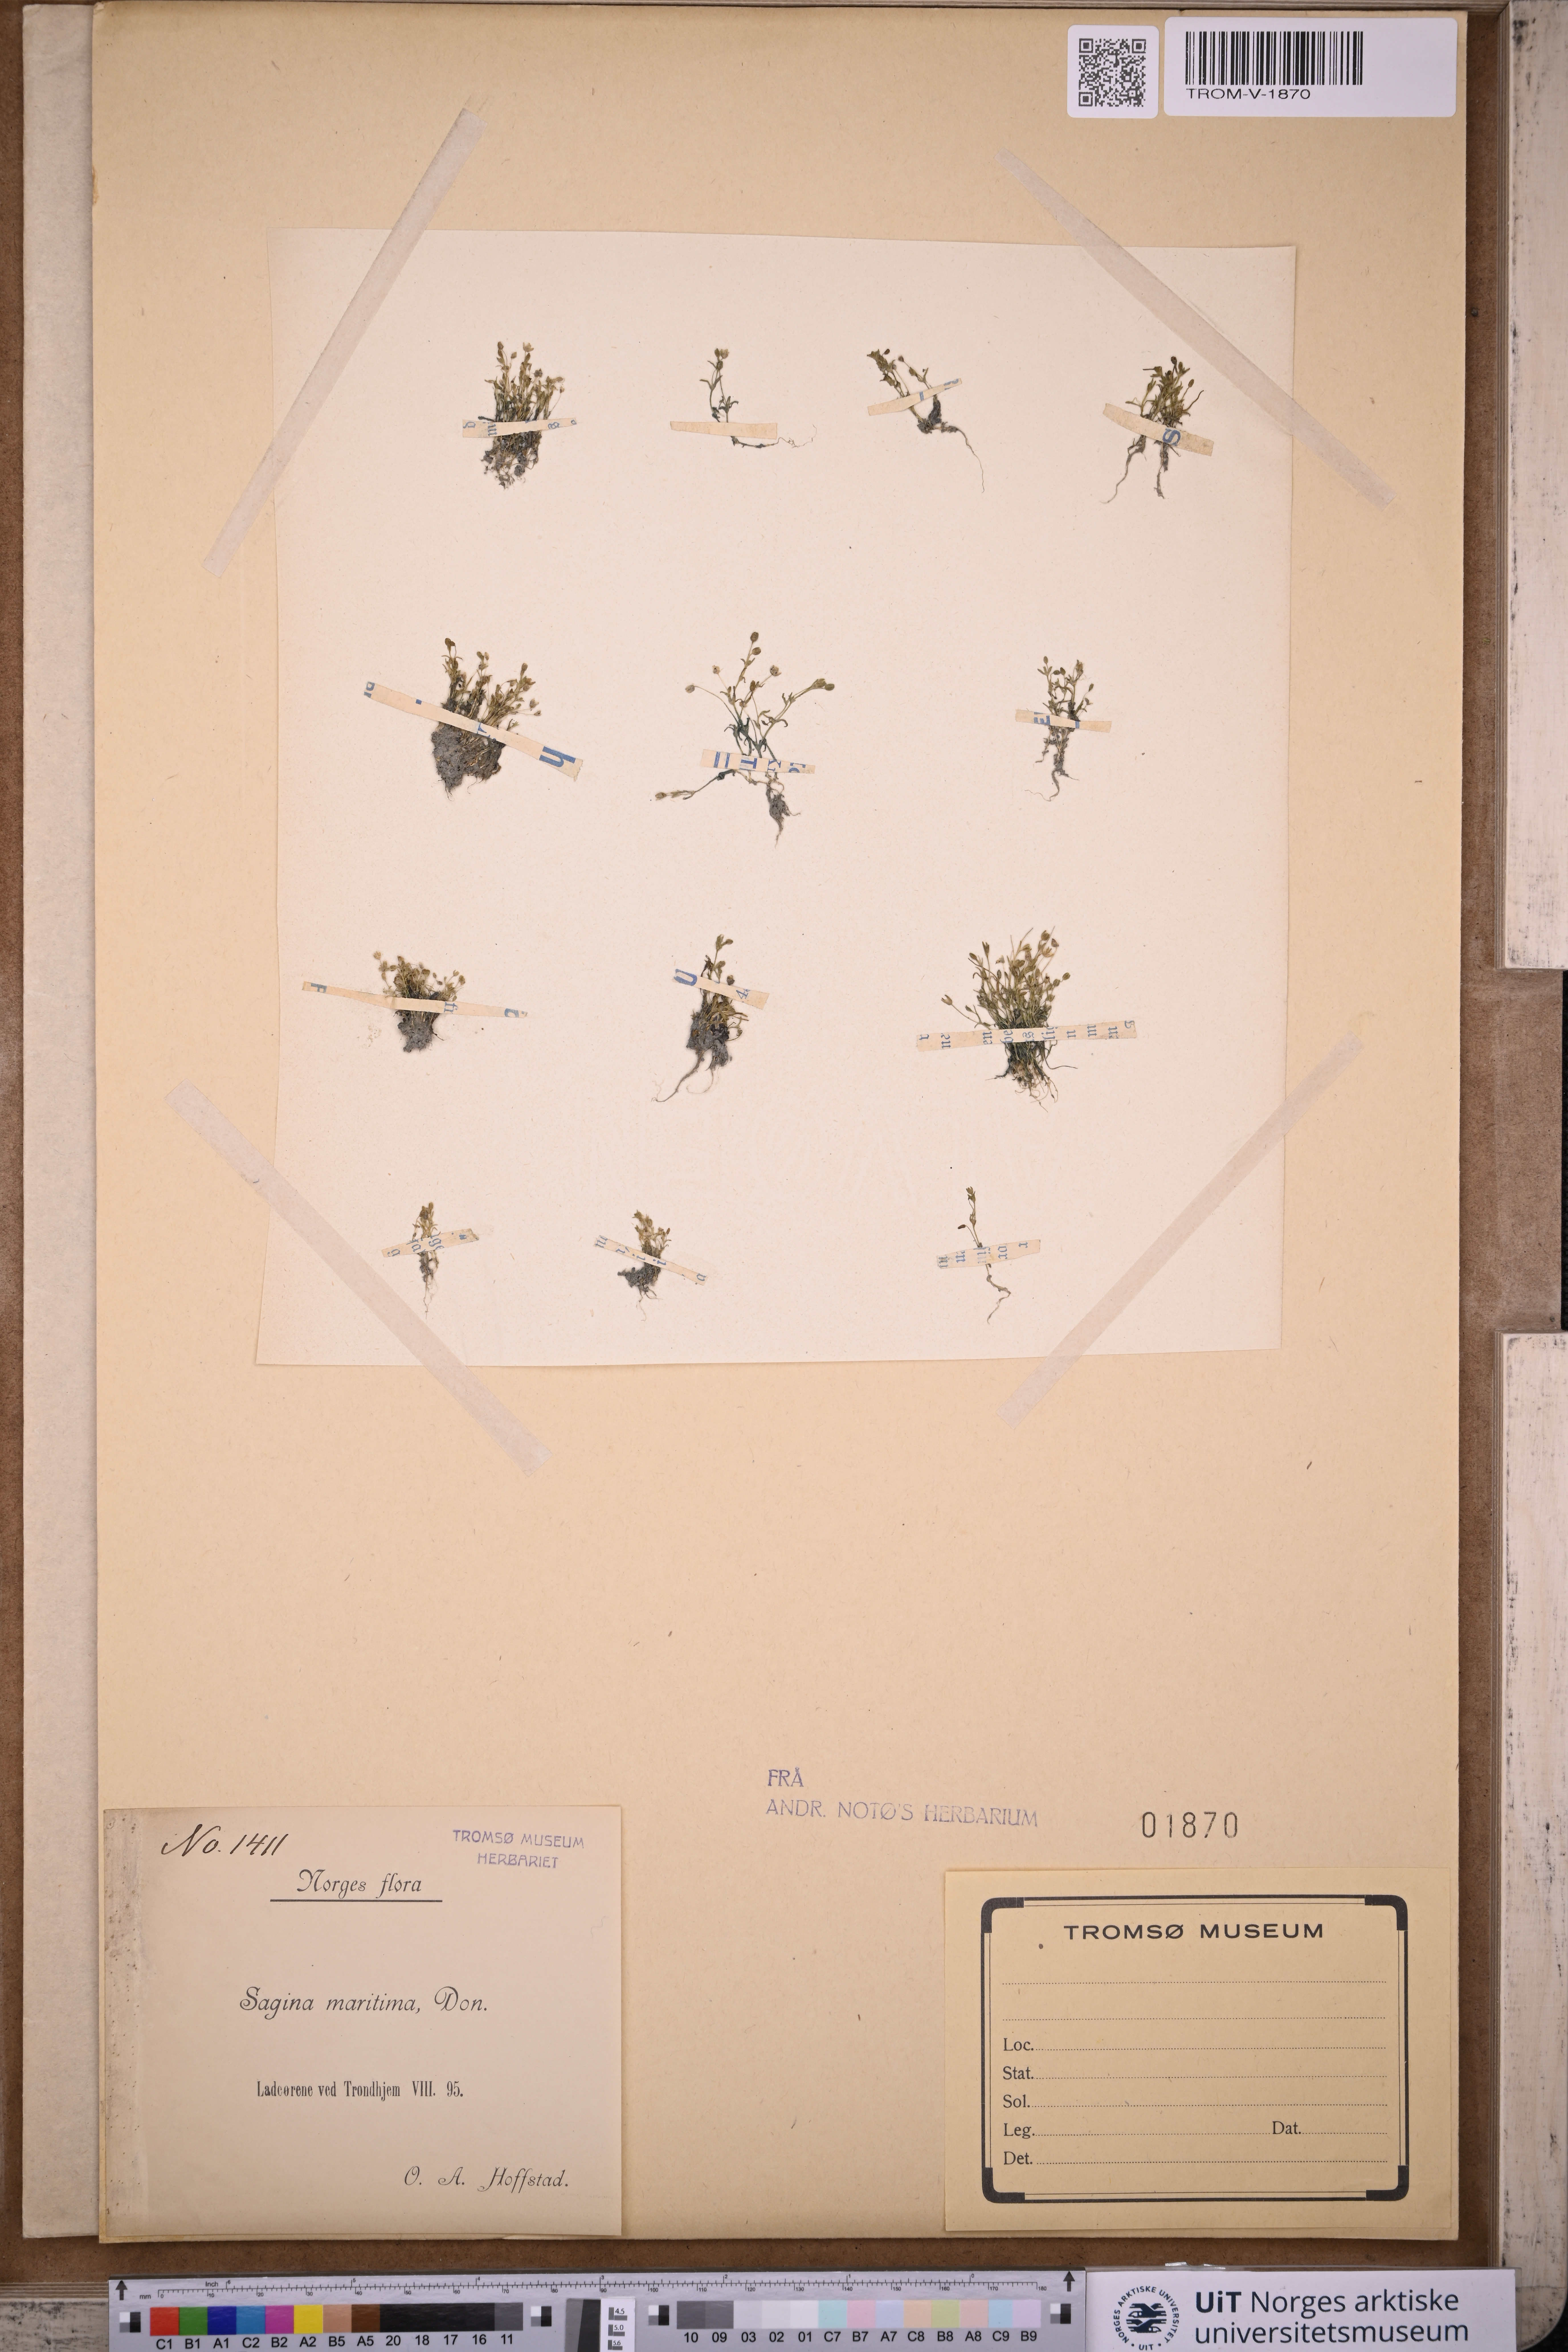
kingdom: Plantae
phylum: Tracheophyta
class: Magnoliopsida
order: Caryophyllales
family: Caryophyllaceae
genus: Sagina
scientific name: Sagina maritima
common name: Sea pearlwort
